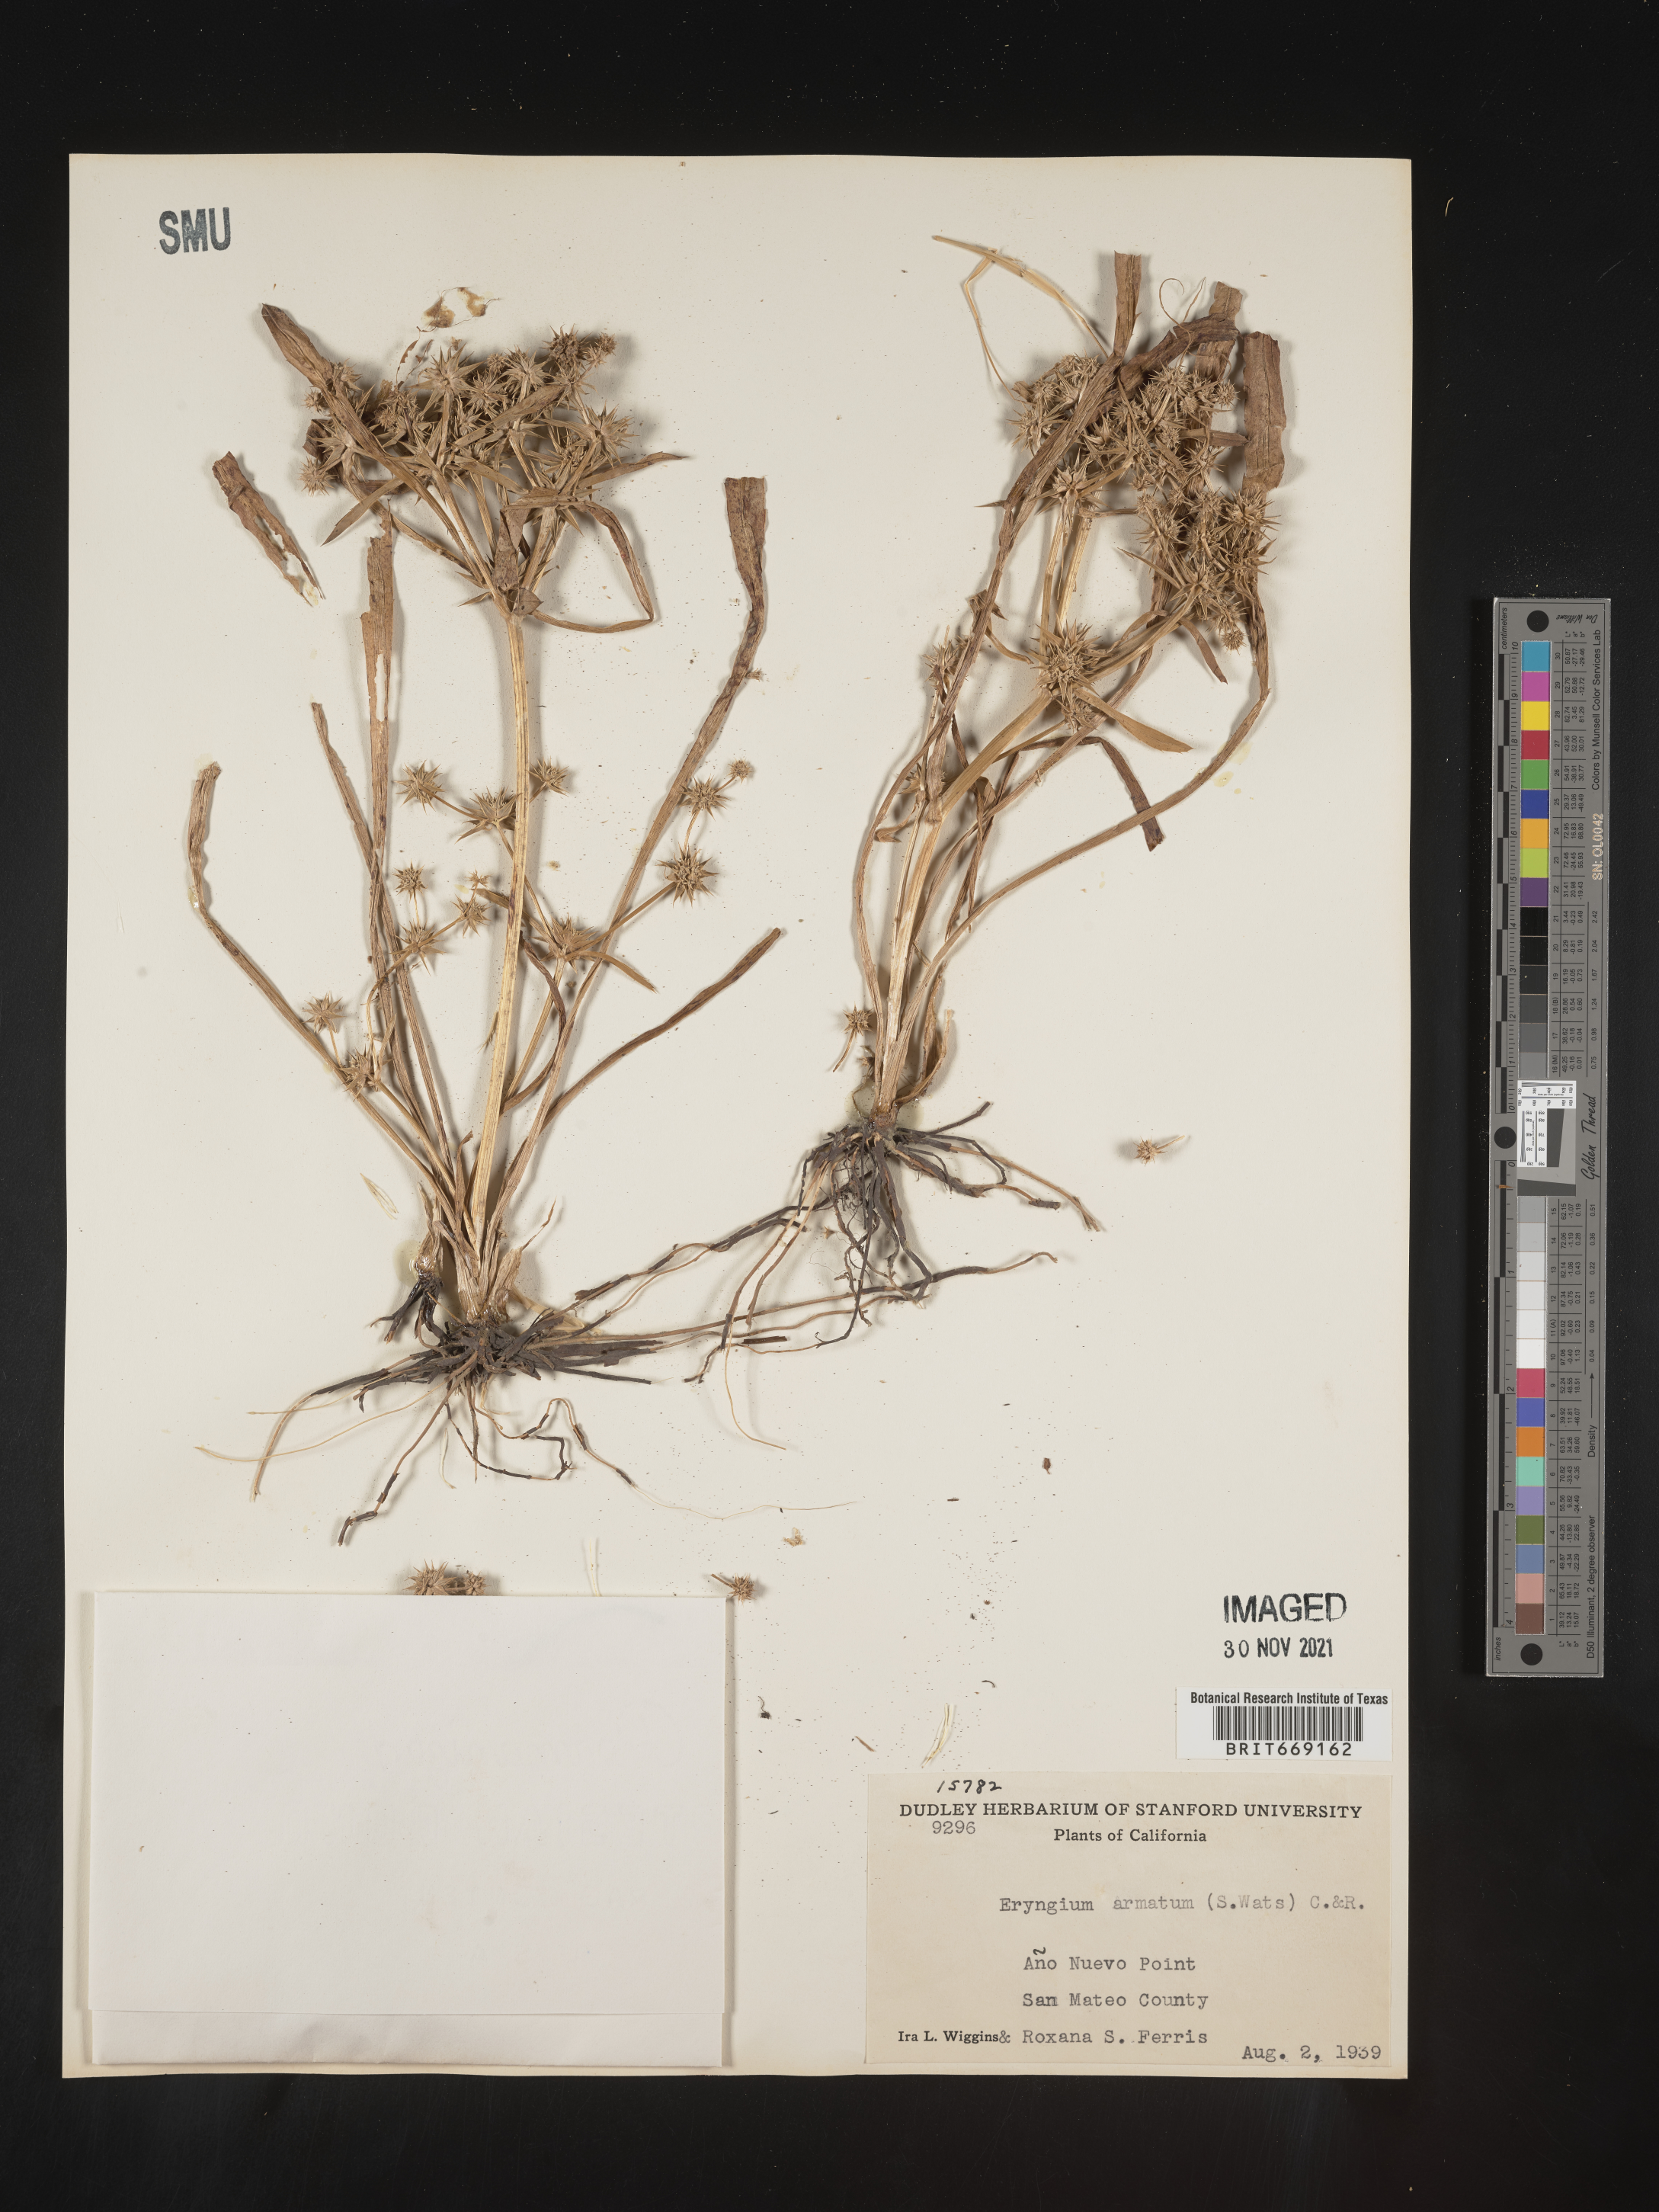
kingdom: Plantae
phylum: Tracheophyta
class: Magnoliopsida
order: Apiales
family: Apiaceae
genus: Eryngium
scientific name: Eryngium armatum
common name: Coyote thistle
